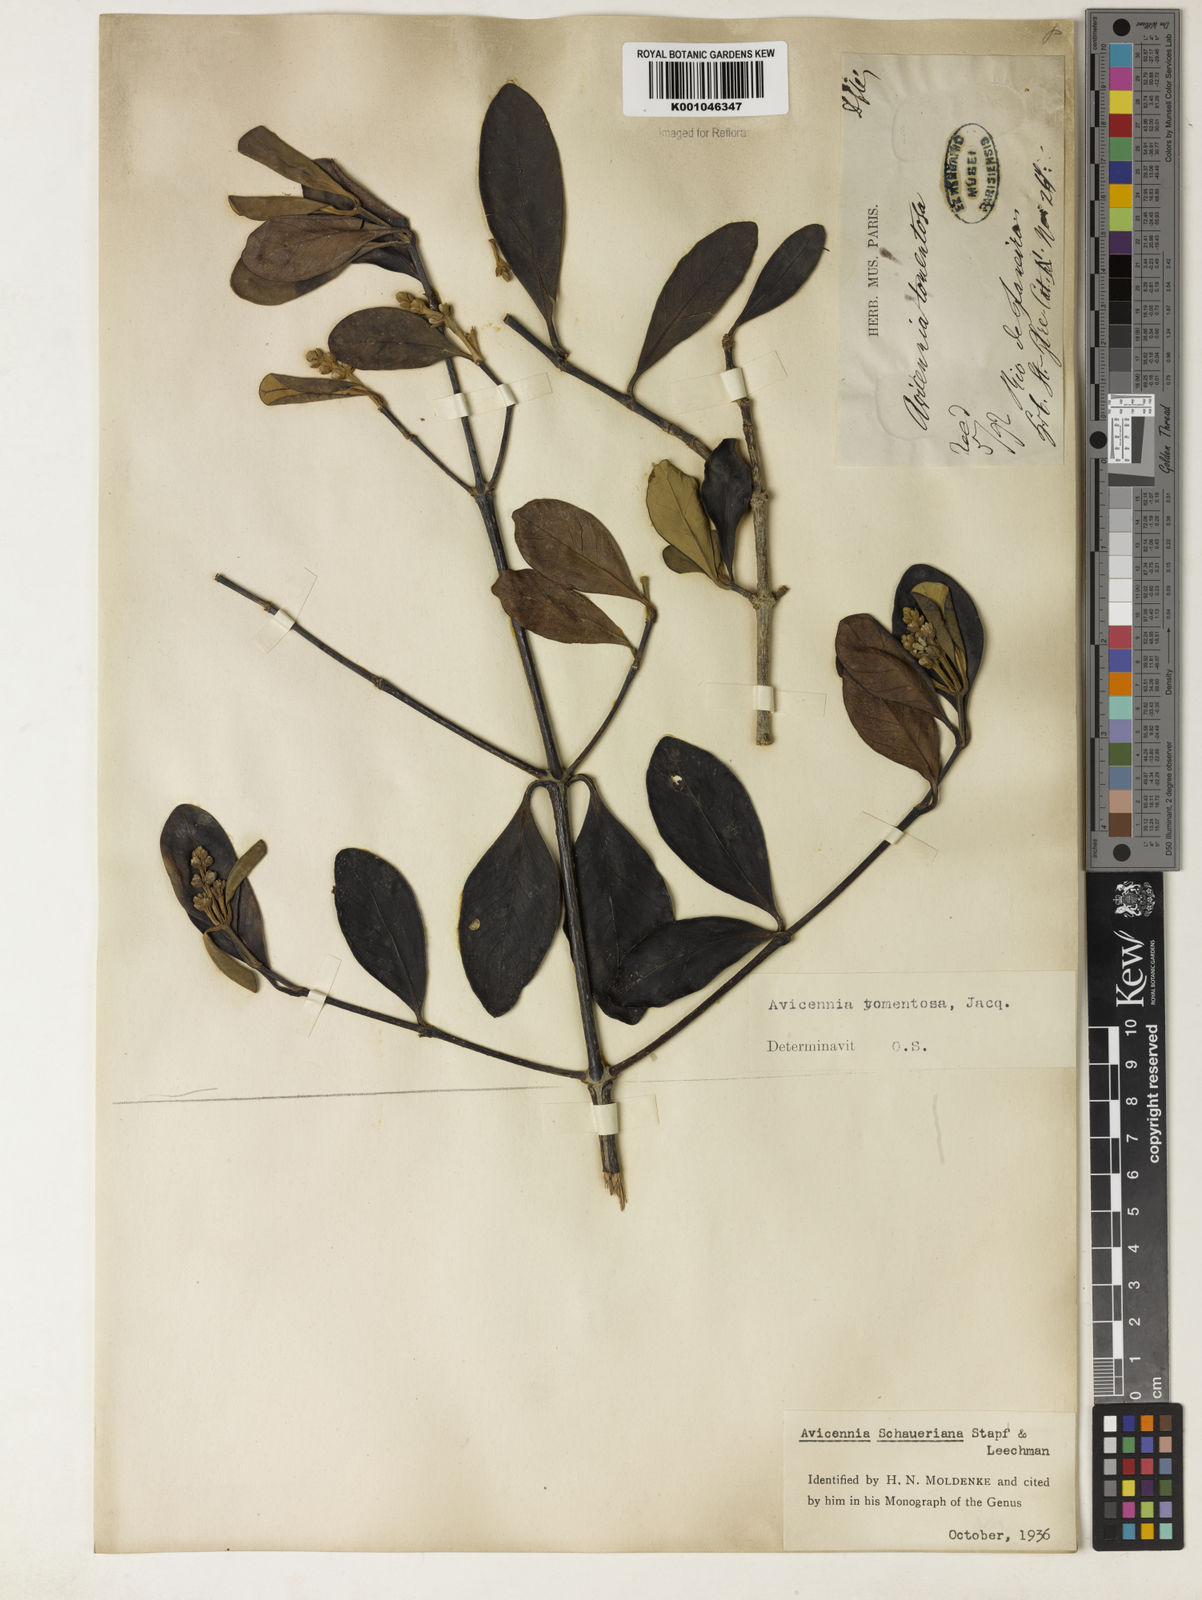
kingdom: Plantae
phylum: Tracheophyta
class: Magnoliopsida
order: Lamiales
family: Acanthaceae
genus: Avicennia
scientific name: Avicennia schaueriana
